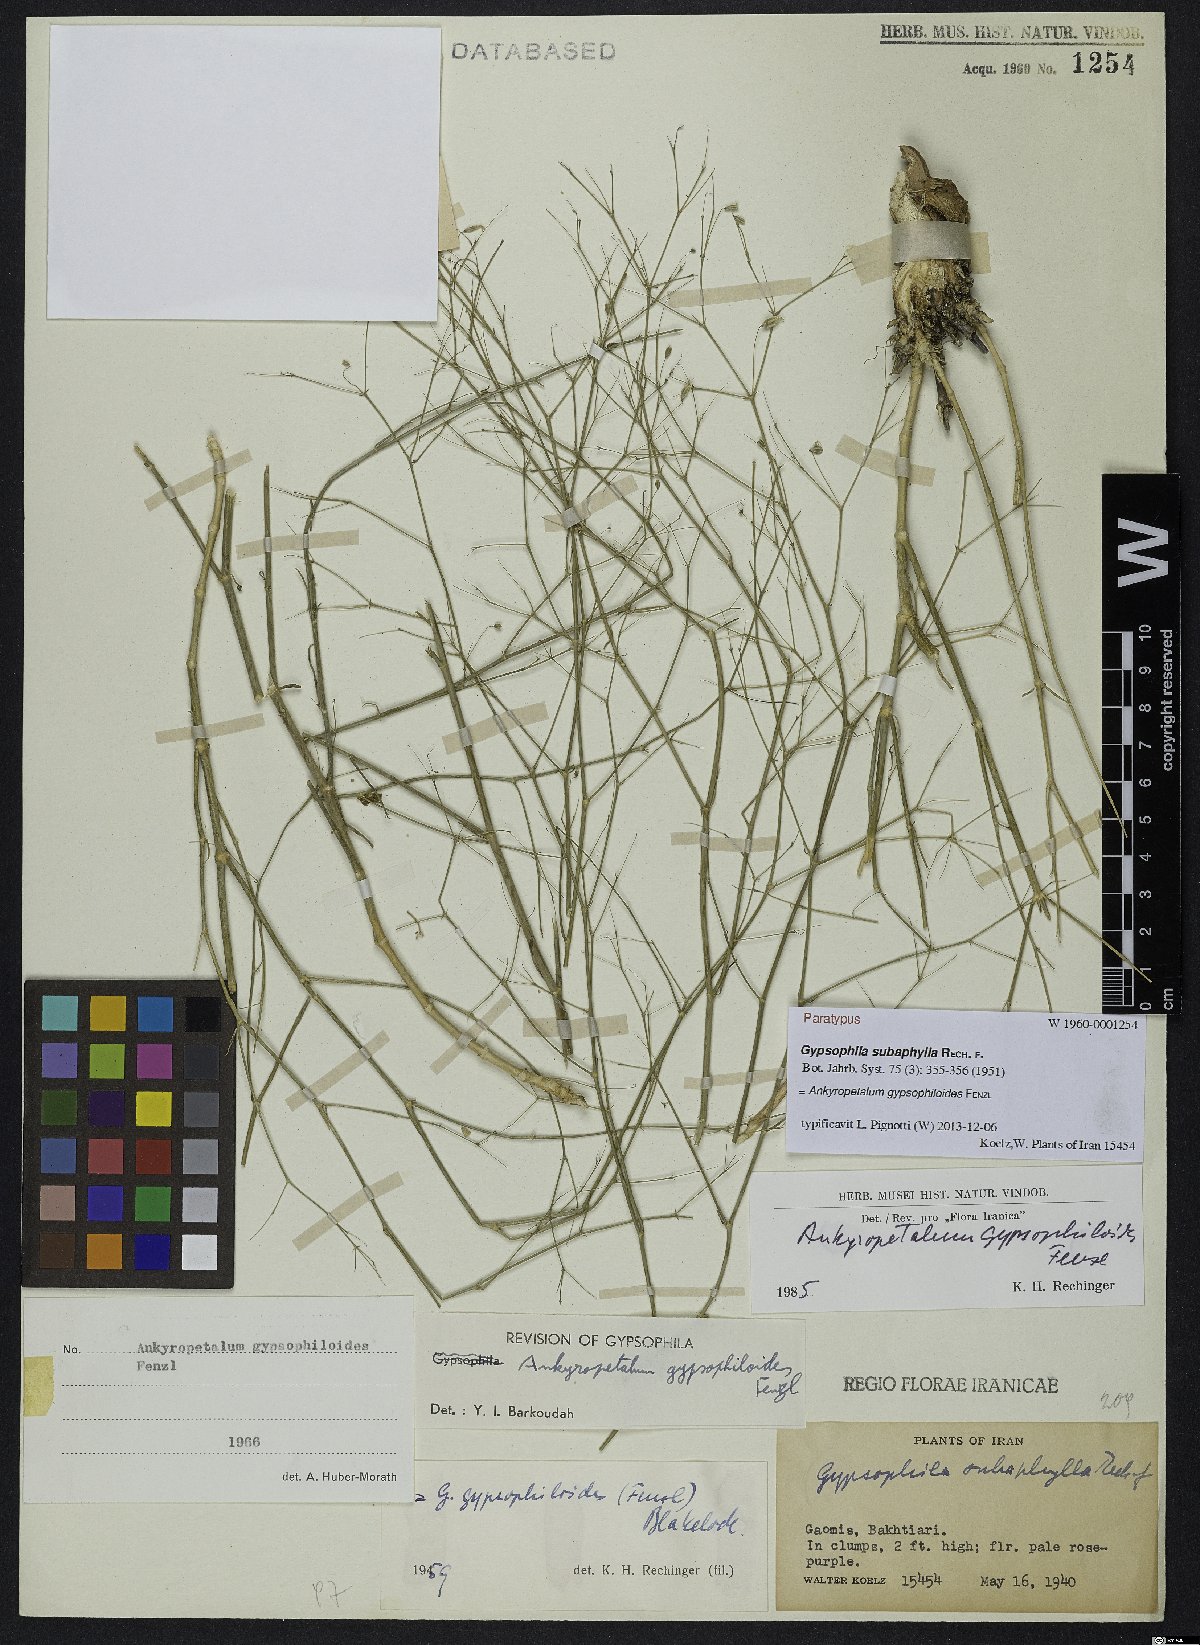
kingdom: Plantae
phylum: Tracheophyta
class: Magnoliopsida
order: Caryophyllales
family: Caryophyllaceae
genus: Mesostemma
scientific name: Mesostemma gypsophiloides
